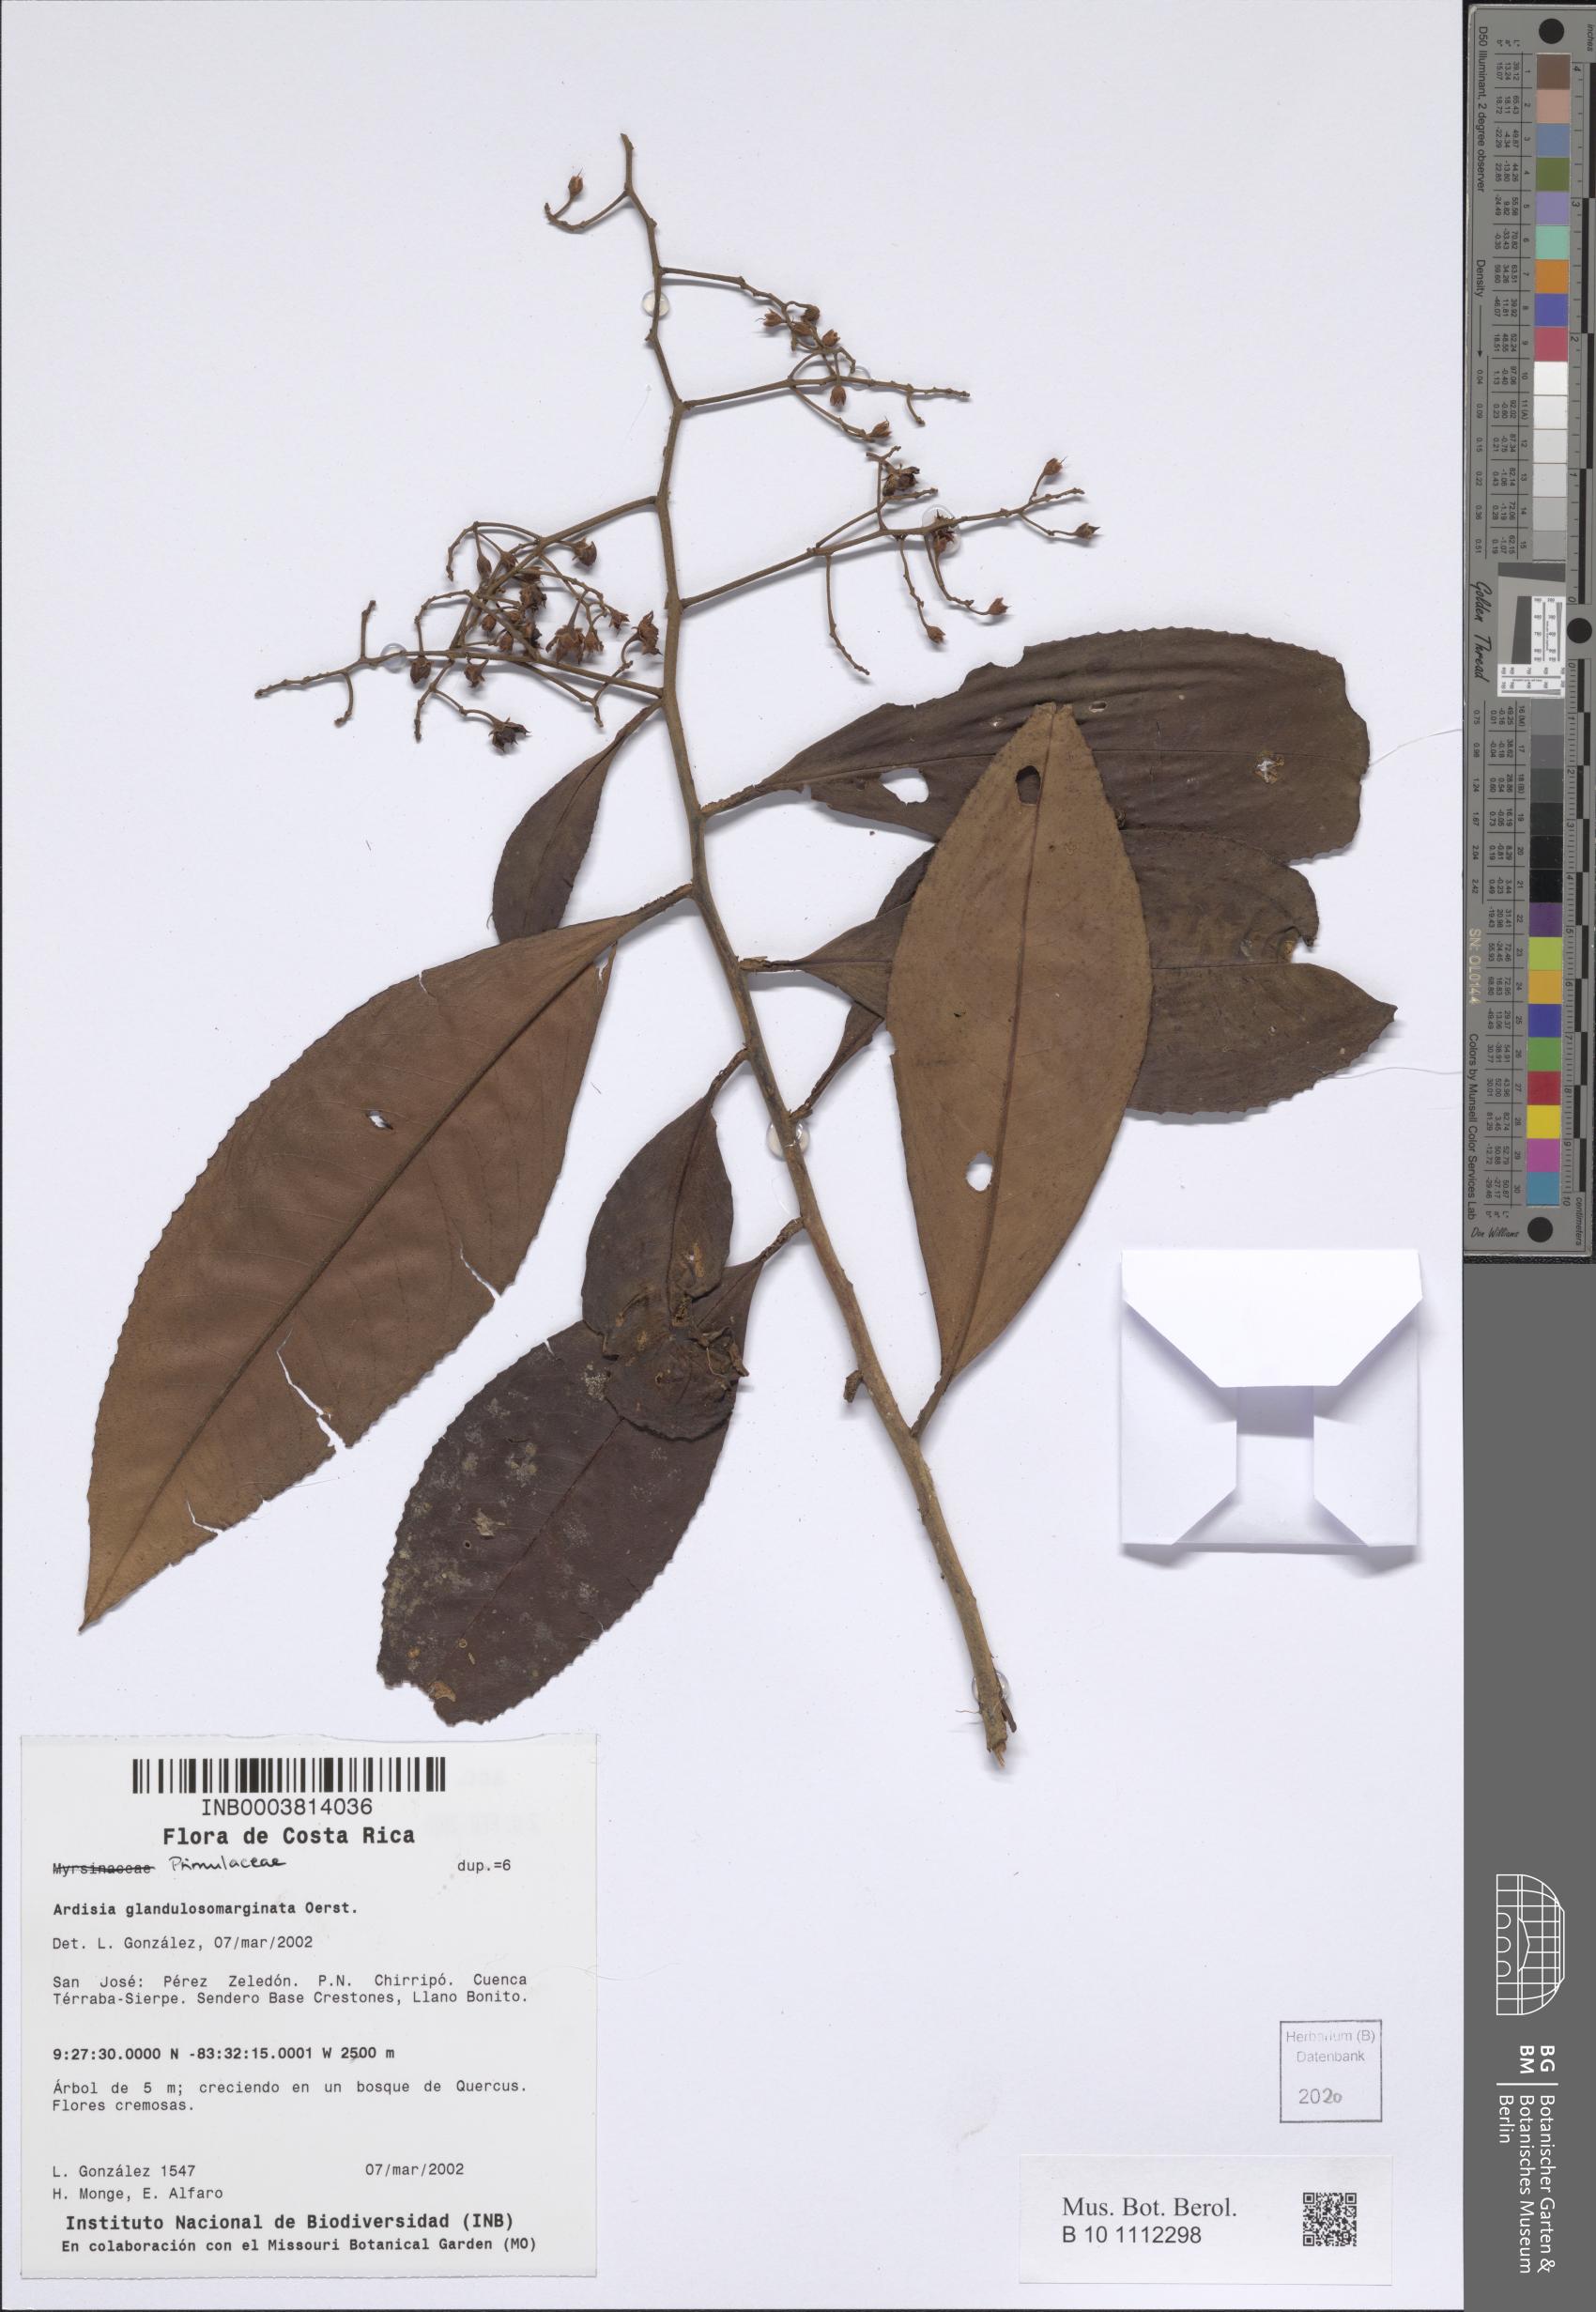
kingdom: Plantae
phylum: Tracheophyta
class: Magnoliopsida
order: Ericales
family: Primulaceae
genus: Ardisia
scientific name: Ardisia glandulosomarginata
